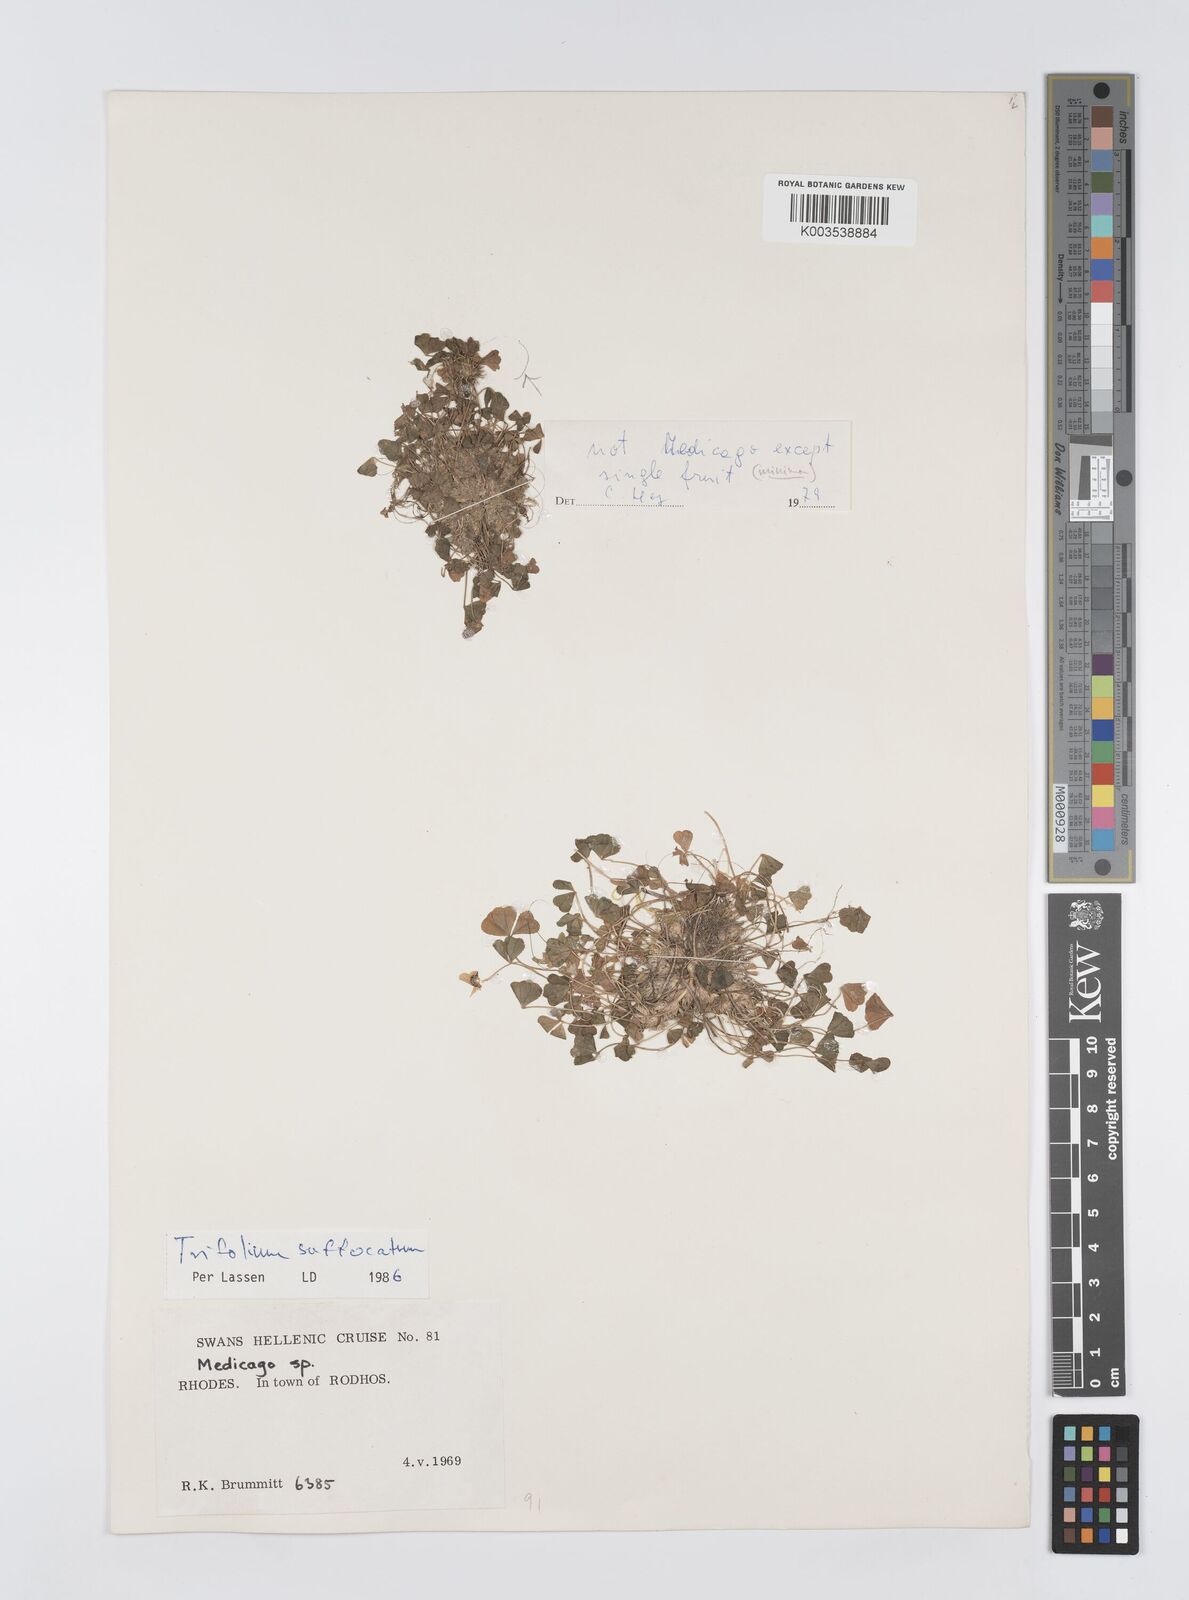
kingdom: Plantae
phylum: Tracheophyta
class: Magnoliopsida
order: Fabales
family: Fabaceae
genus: Trifolium
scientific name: Trifolium suffocatum
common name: Suffocated clover
